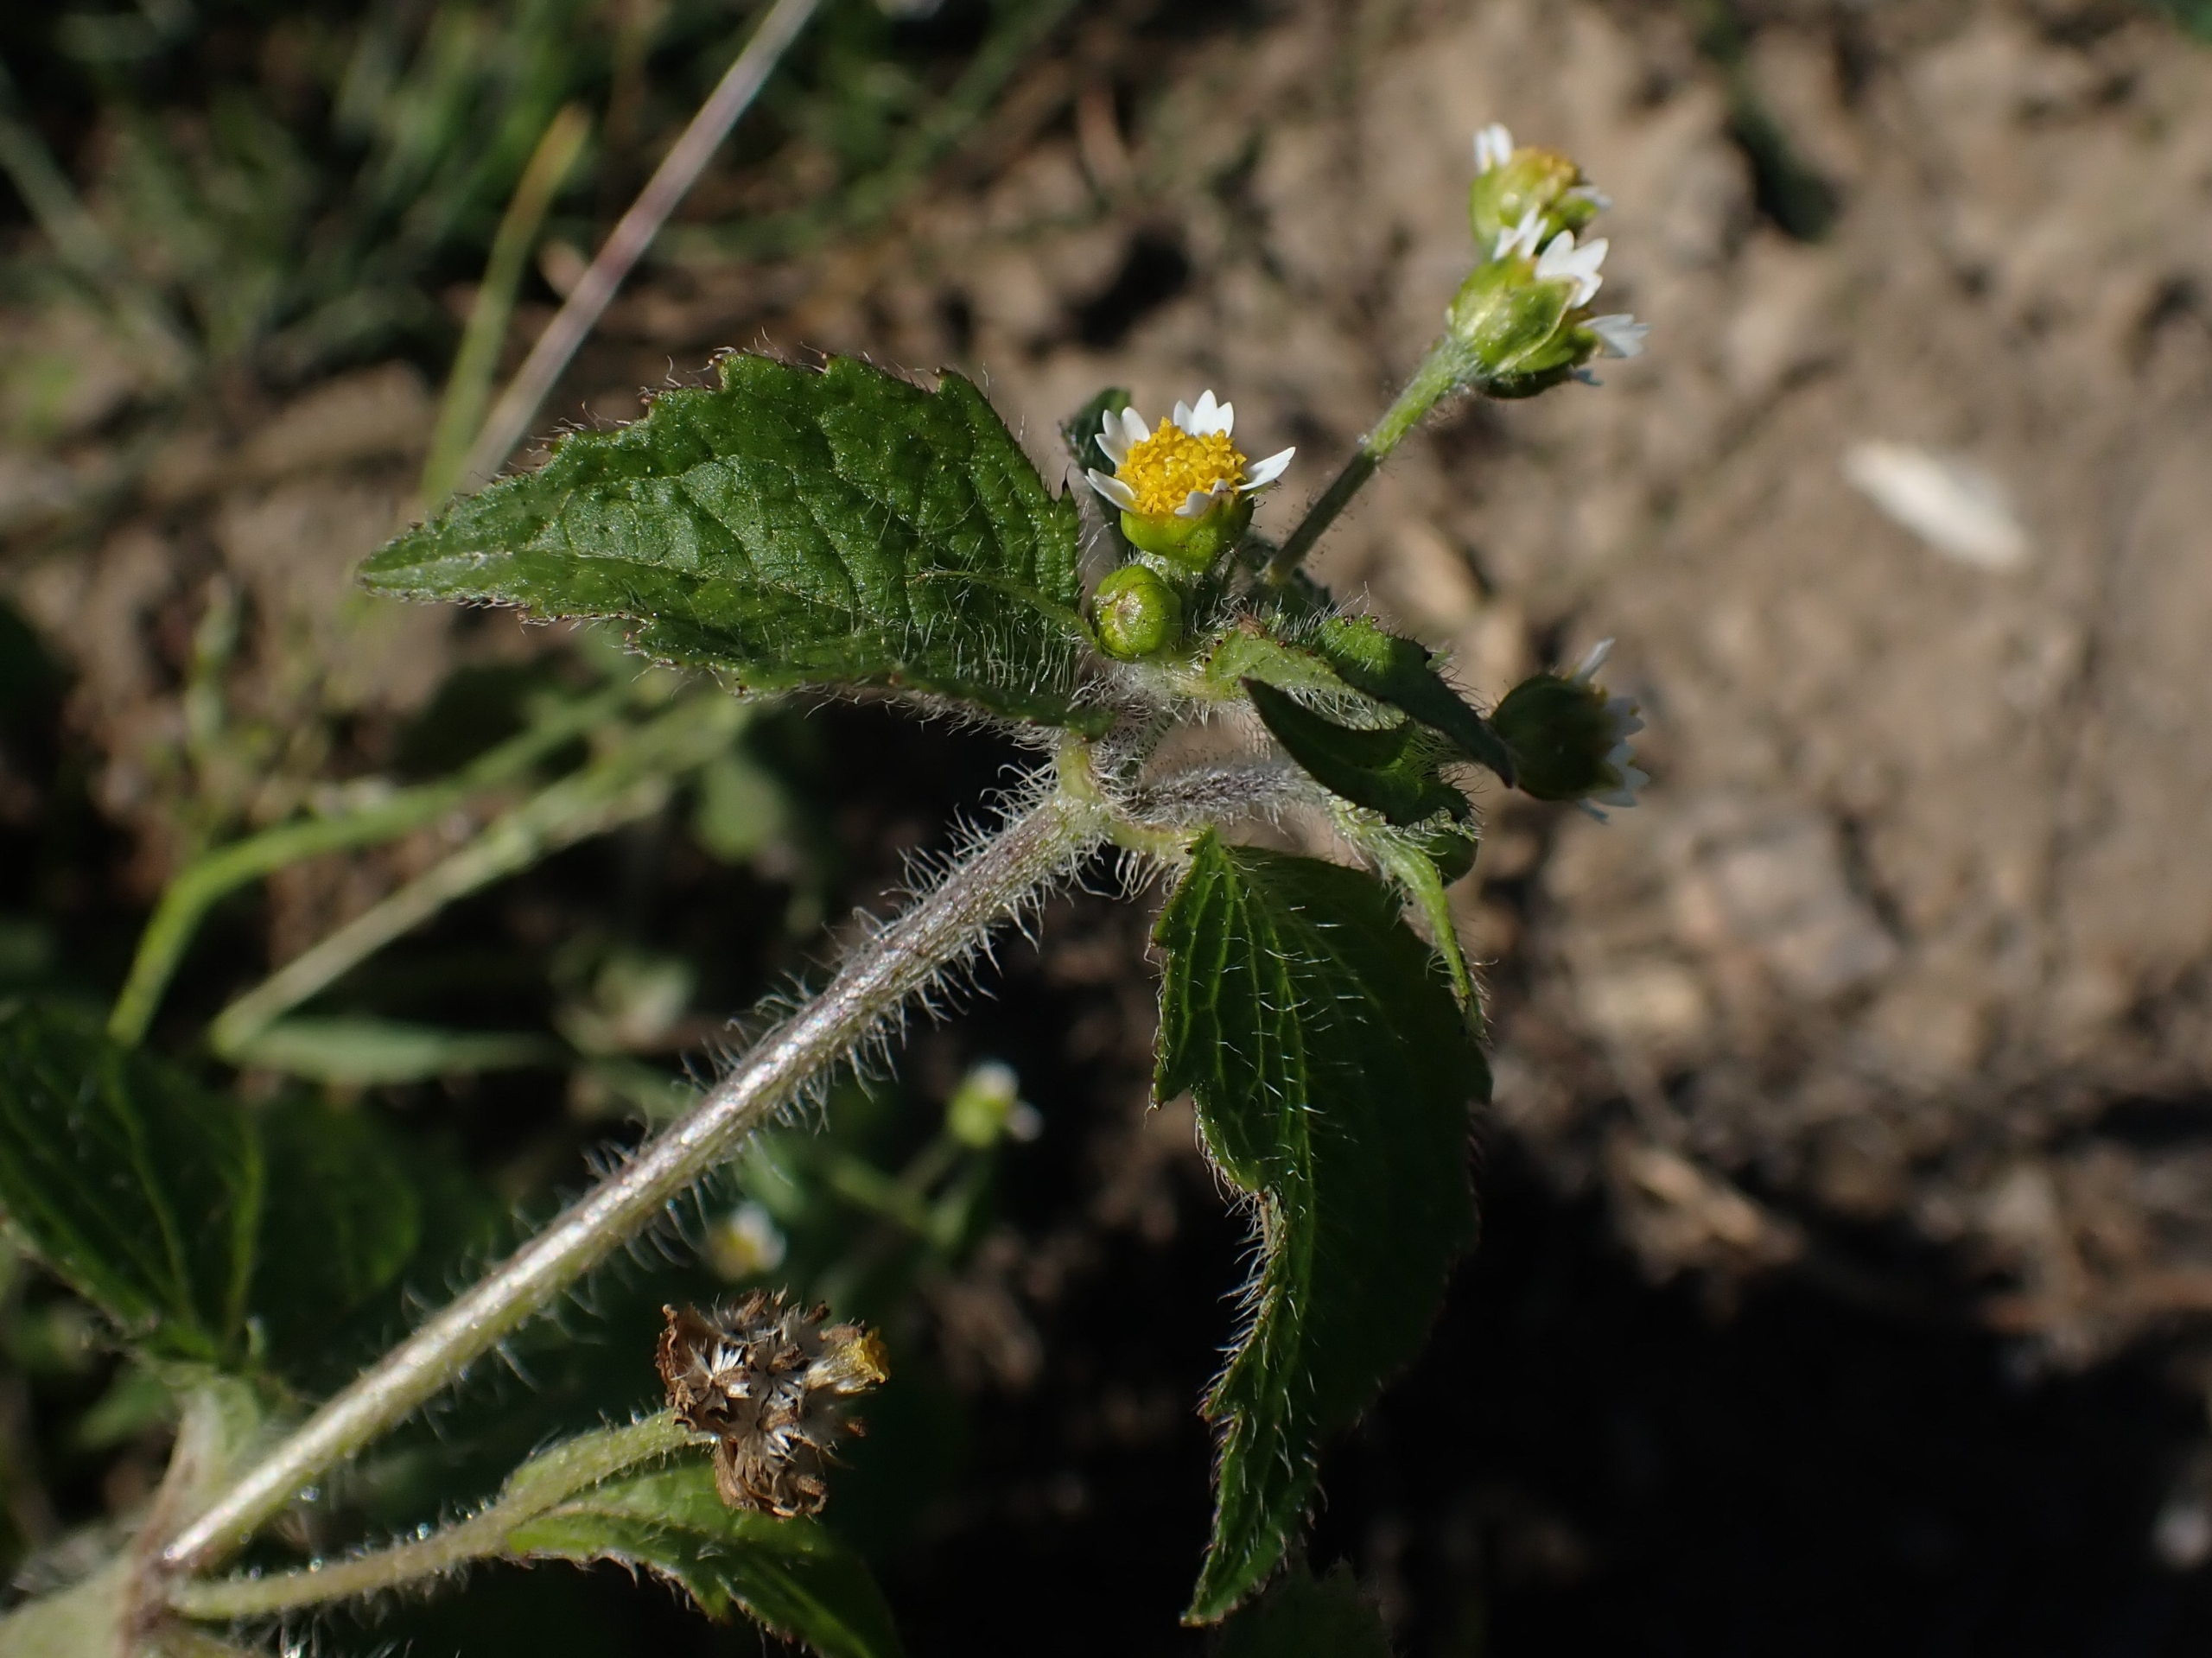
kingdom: Plantae
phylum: Tracheophyta
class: Magnoliopsida
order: Asterales
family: Asteraceae
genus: Galinsoga
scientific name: Galinsoga quadriradiata
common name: Kirtel-kortstråle
